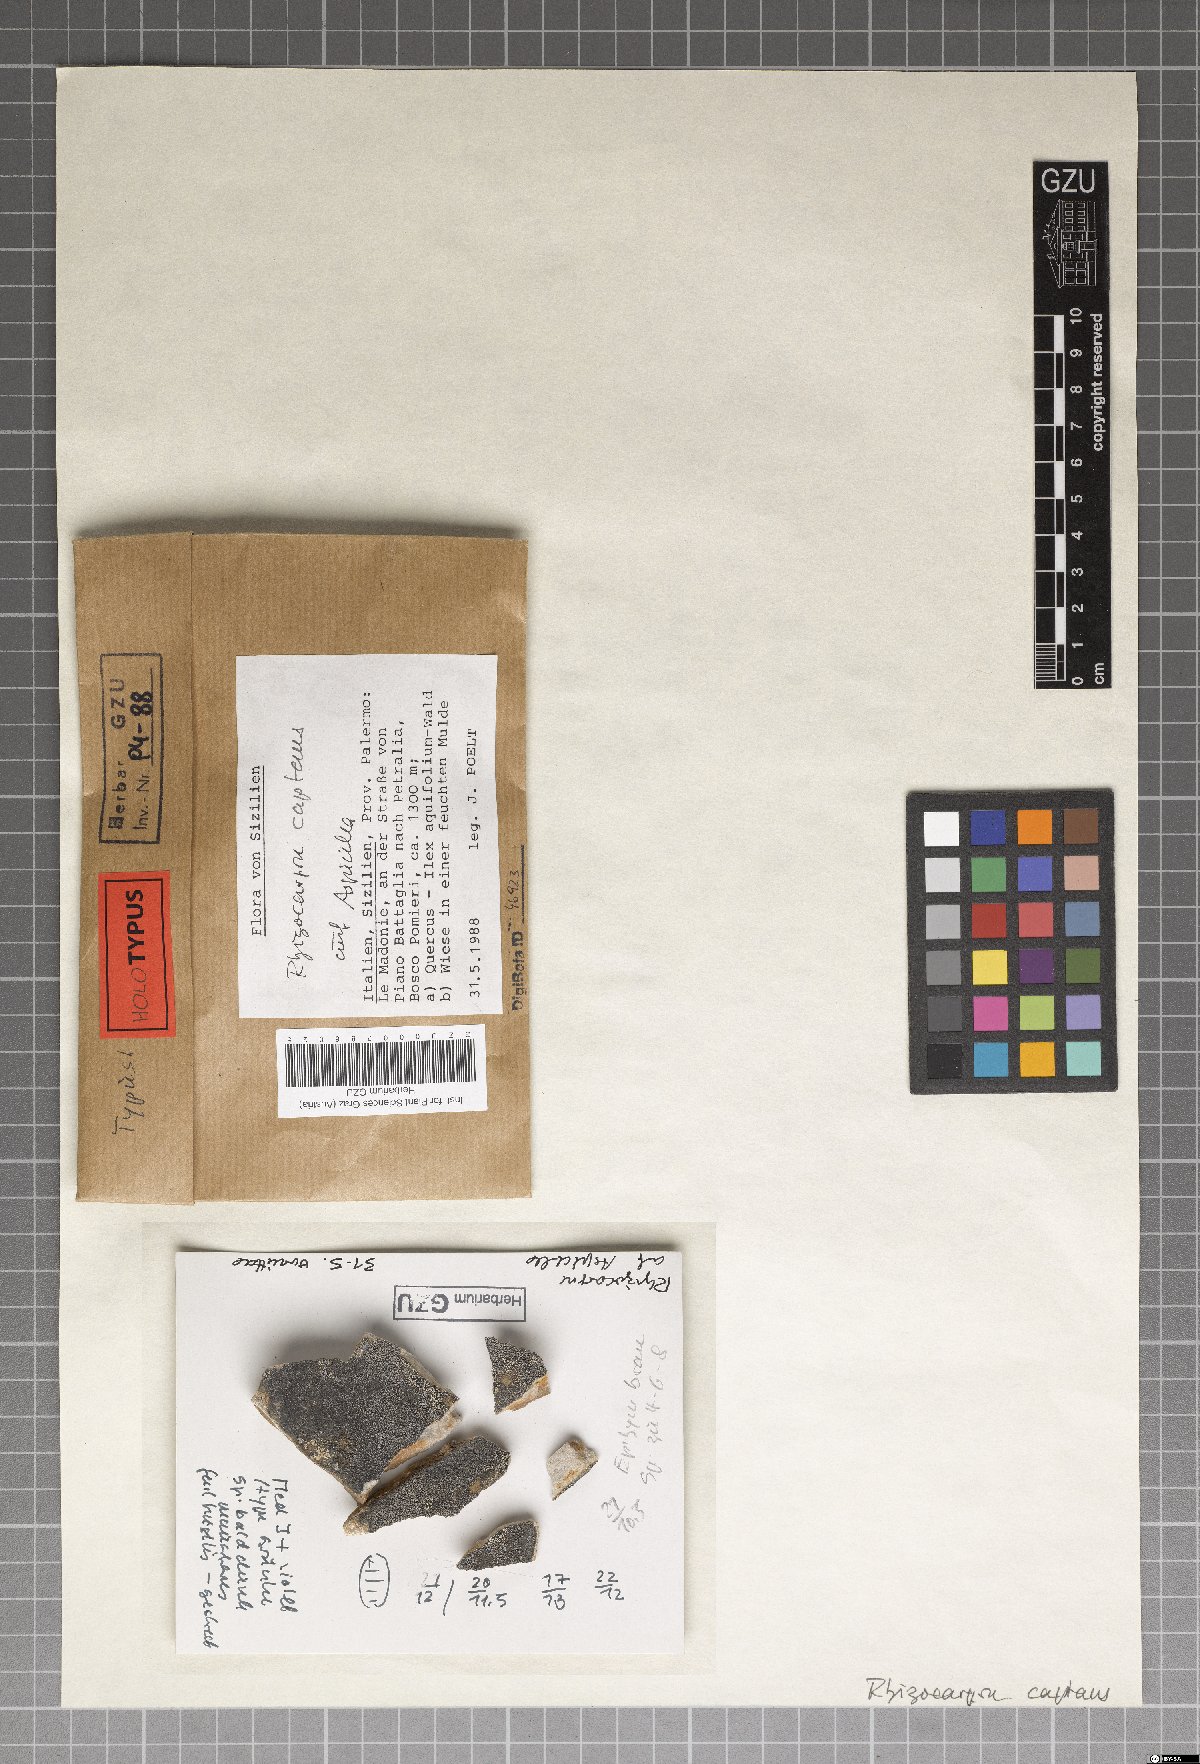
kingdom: Fungi
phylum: Ascomycota
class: Lecanoromycetes
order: Rhizocarpales
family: Rhizocarpaceae
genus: Rhizocarpon
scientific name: Rhizocarpon
